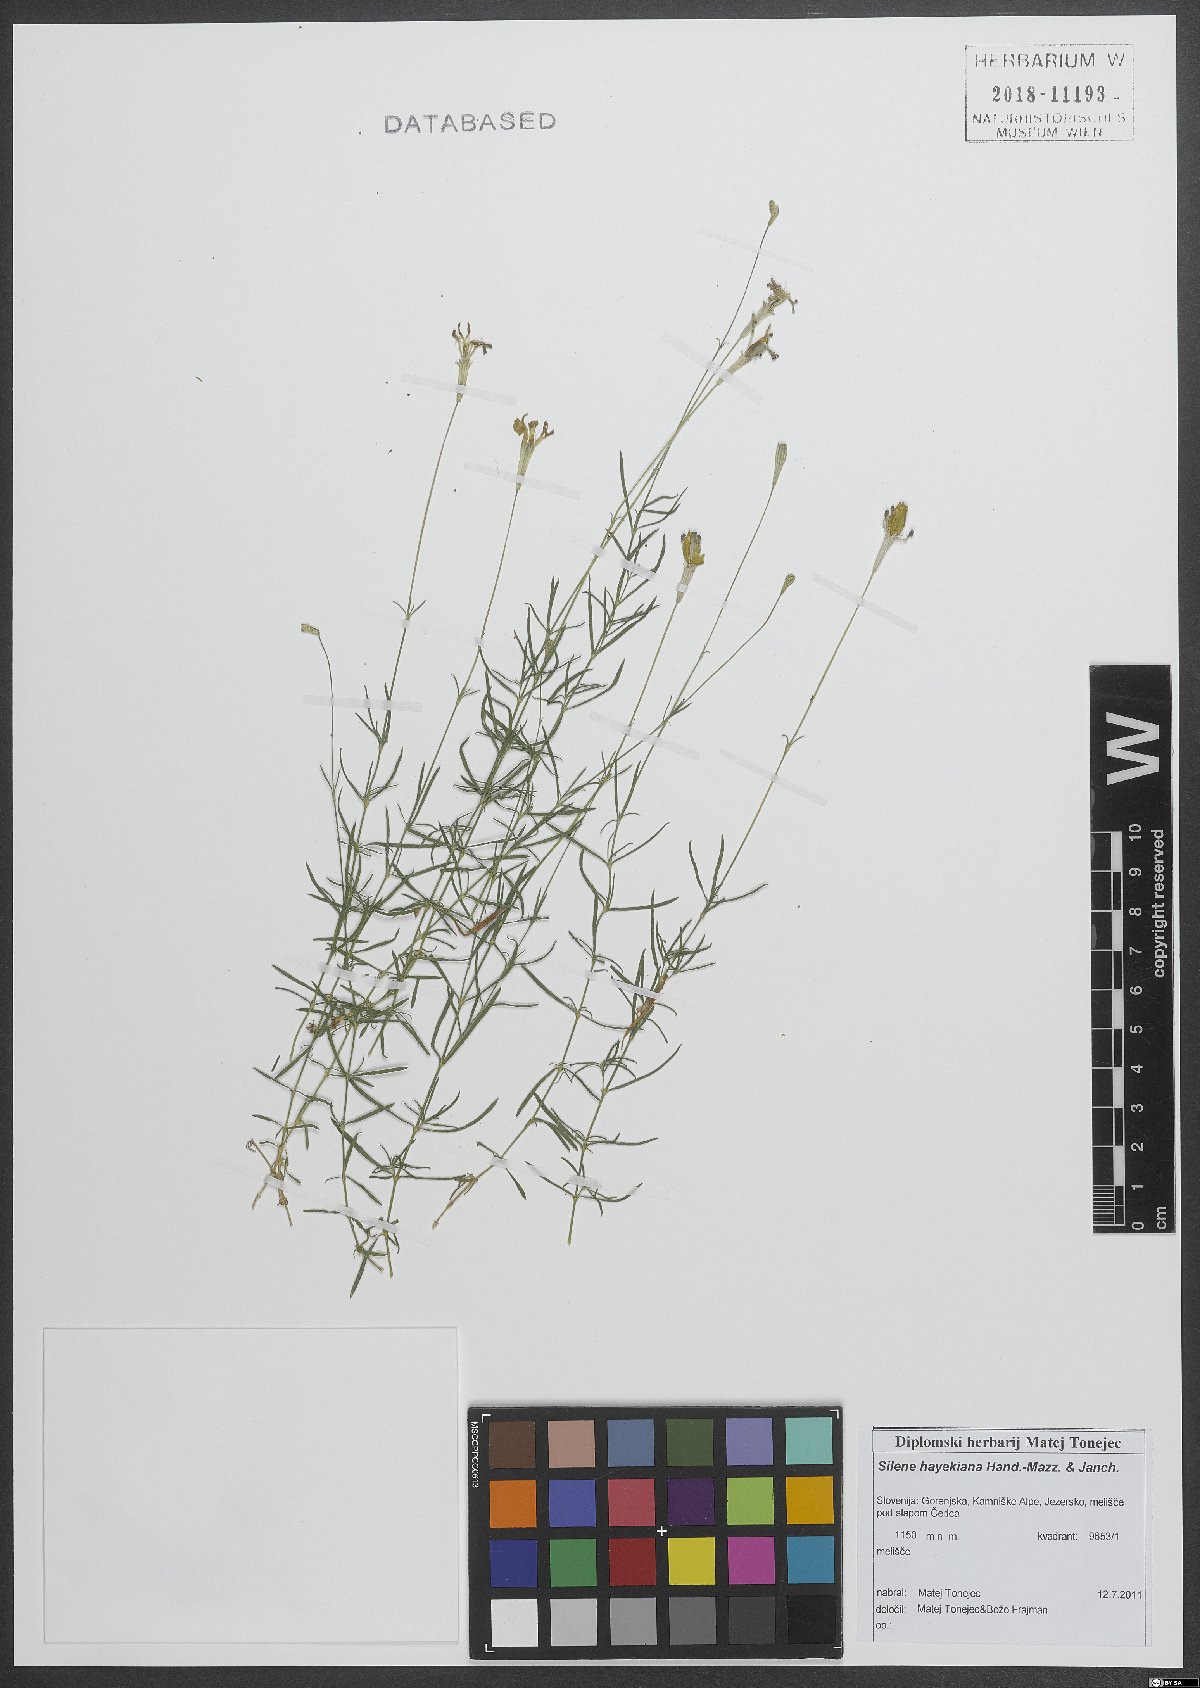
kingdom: Plantae
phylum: Tracheophyta
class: Magnoliopsida
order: Caryophyllales
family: Caryophyllaceae
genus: Silene
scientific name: Silene hayekiana
